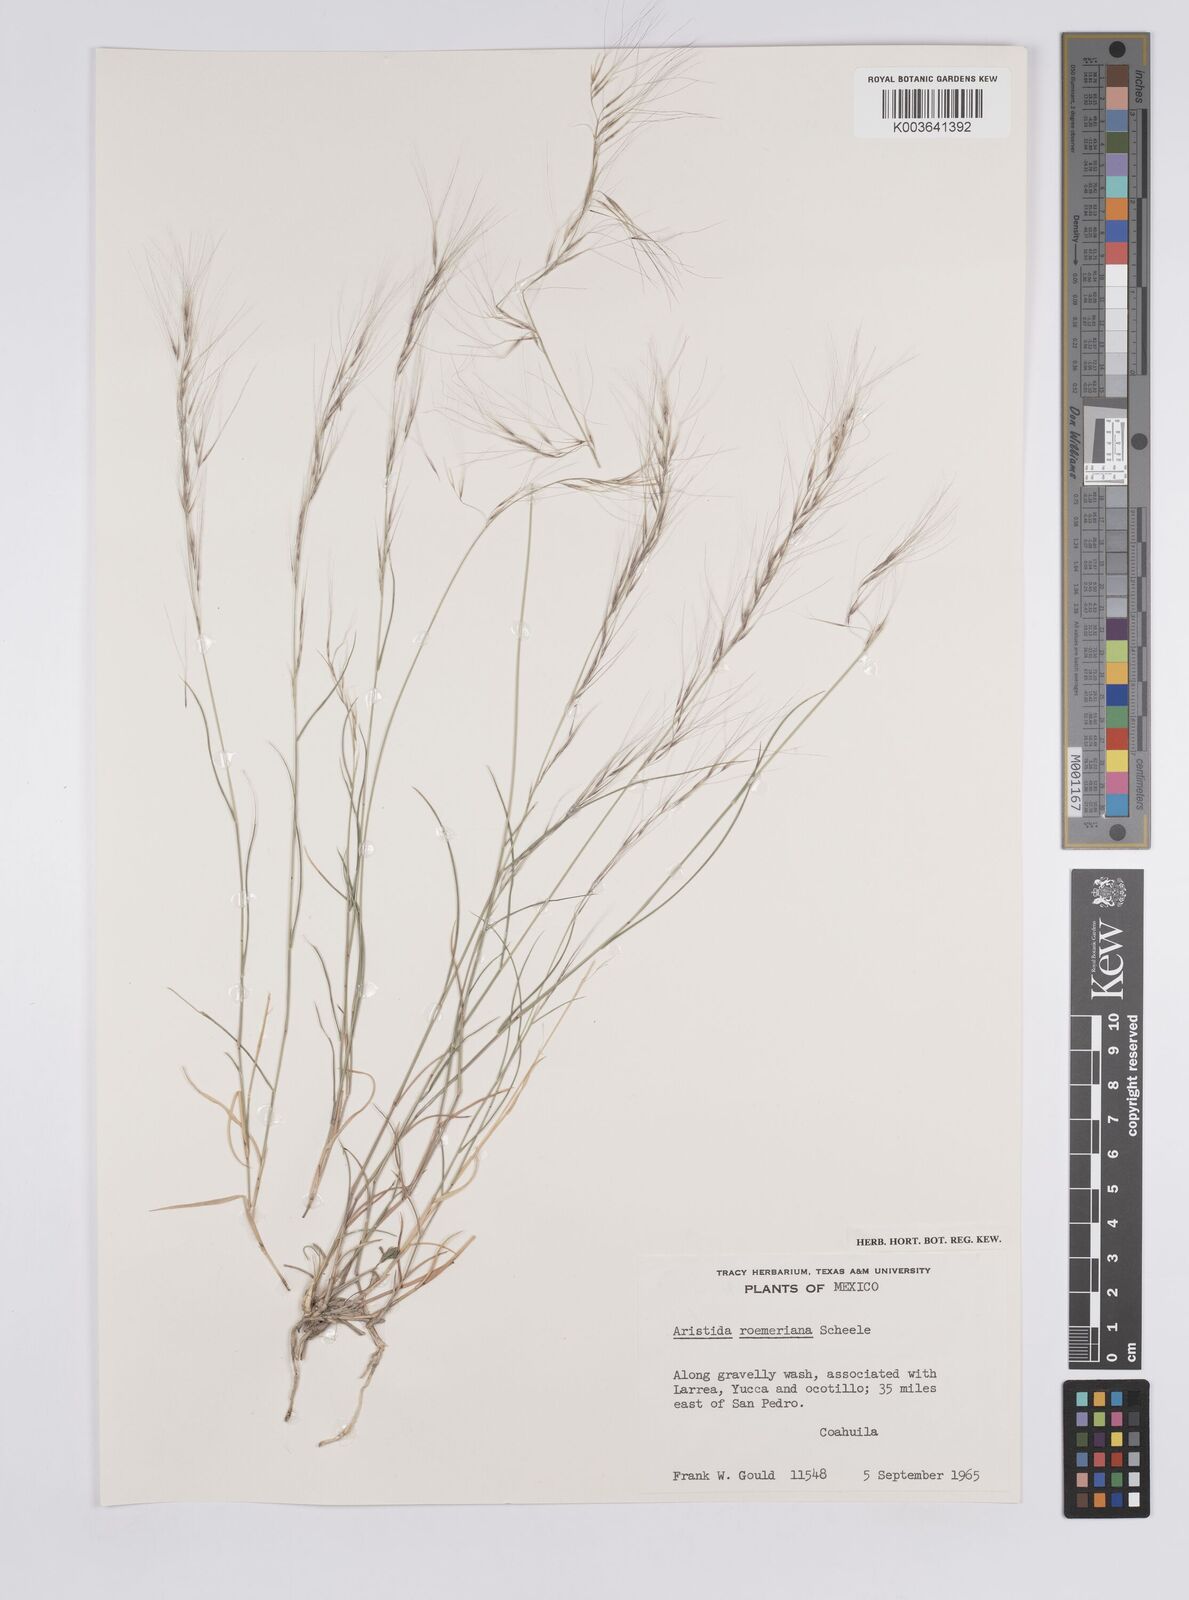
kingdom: Plantae
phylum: Tracheophyta
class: Liliopsida
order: Poales
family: Poaceae
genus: Aristida
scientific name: Aristida purpurea
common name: Purple threeawn
